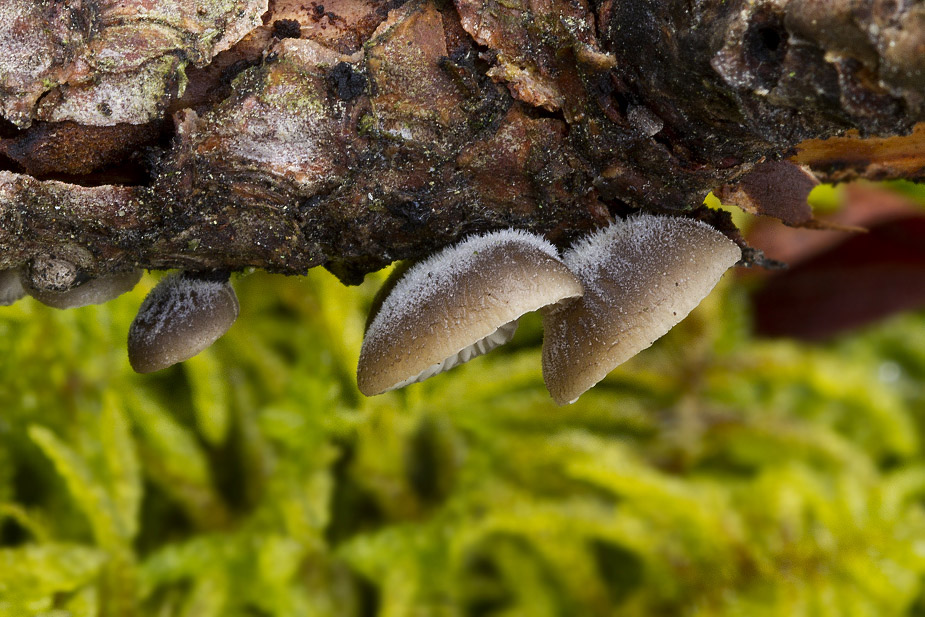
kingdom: Fungi
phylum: Basidiomycota
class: Agaricomycetes
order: Agaricales
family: Pleurotaceae
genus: Hohenbuehelia
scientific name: Hohenbuehelia fluxilis
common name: pile-filthat
